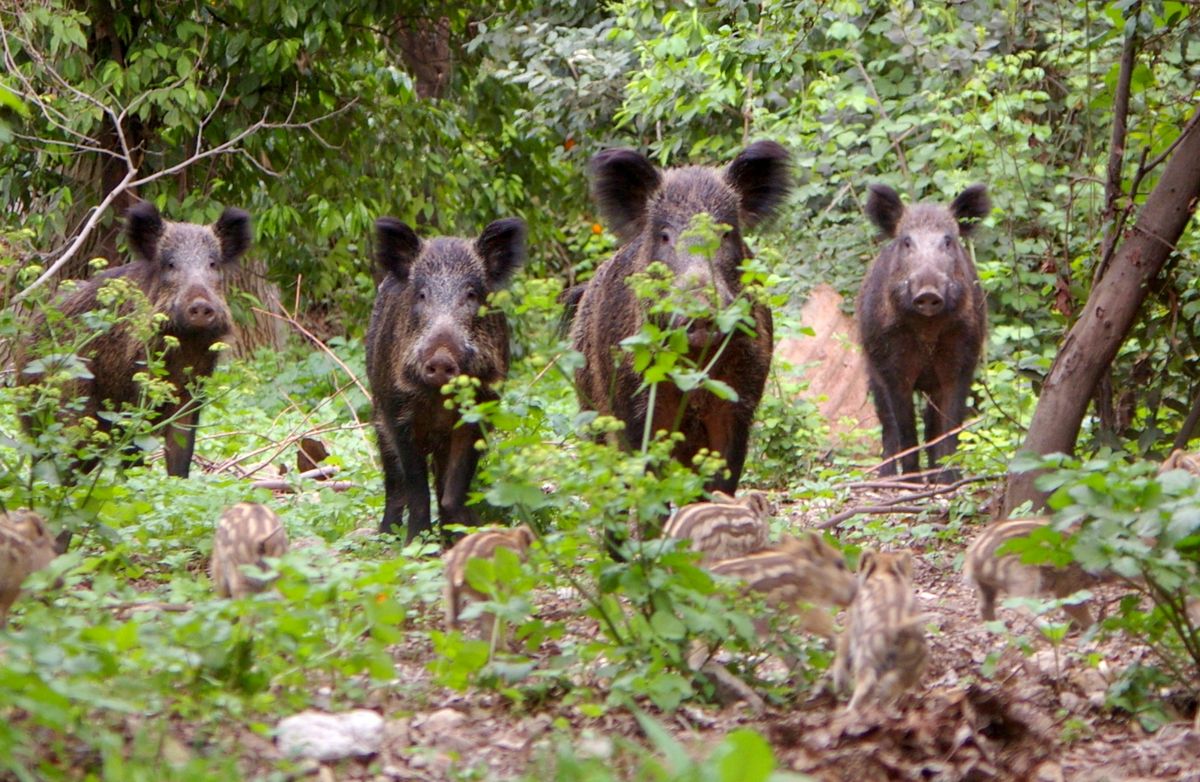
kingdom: Animalia
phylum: Chordata
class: Mammalia
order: Artiodactyla
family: Suidae
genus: Sus
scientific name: Sus scrofa
